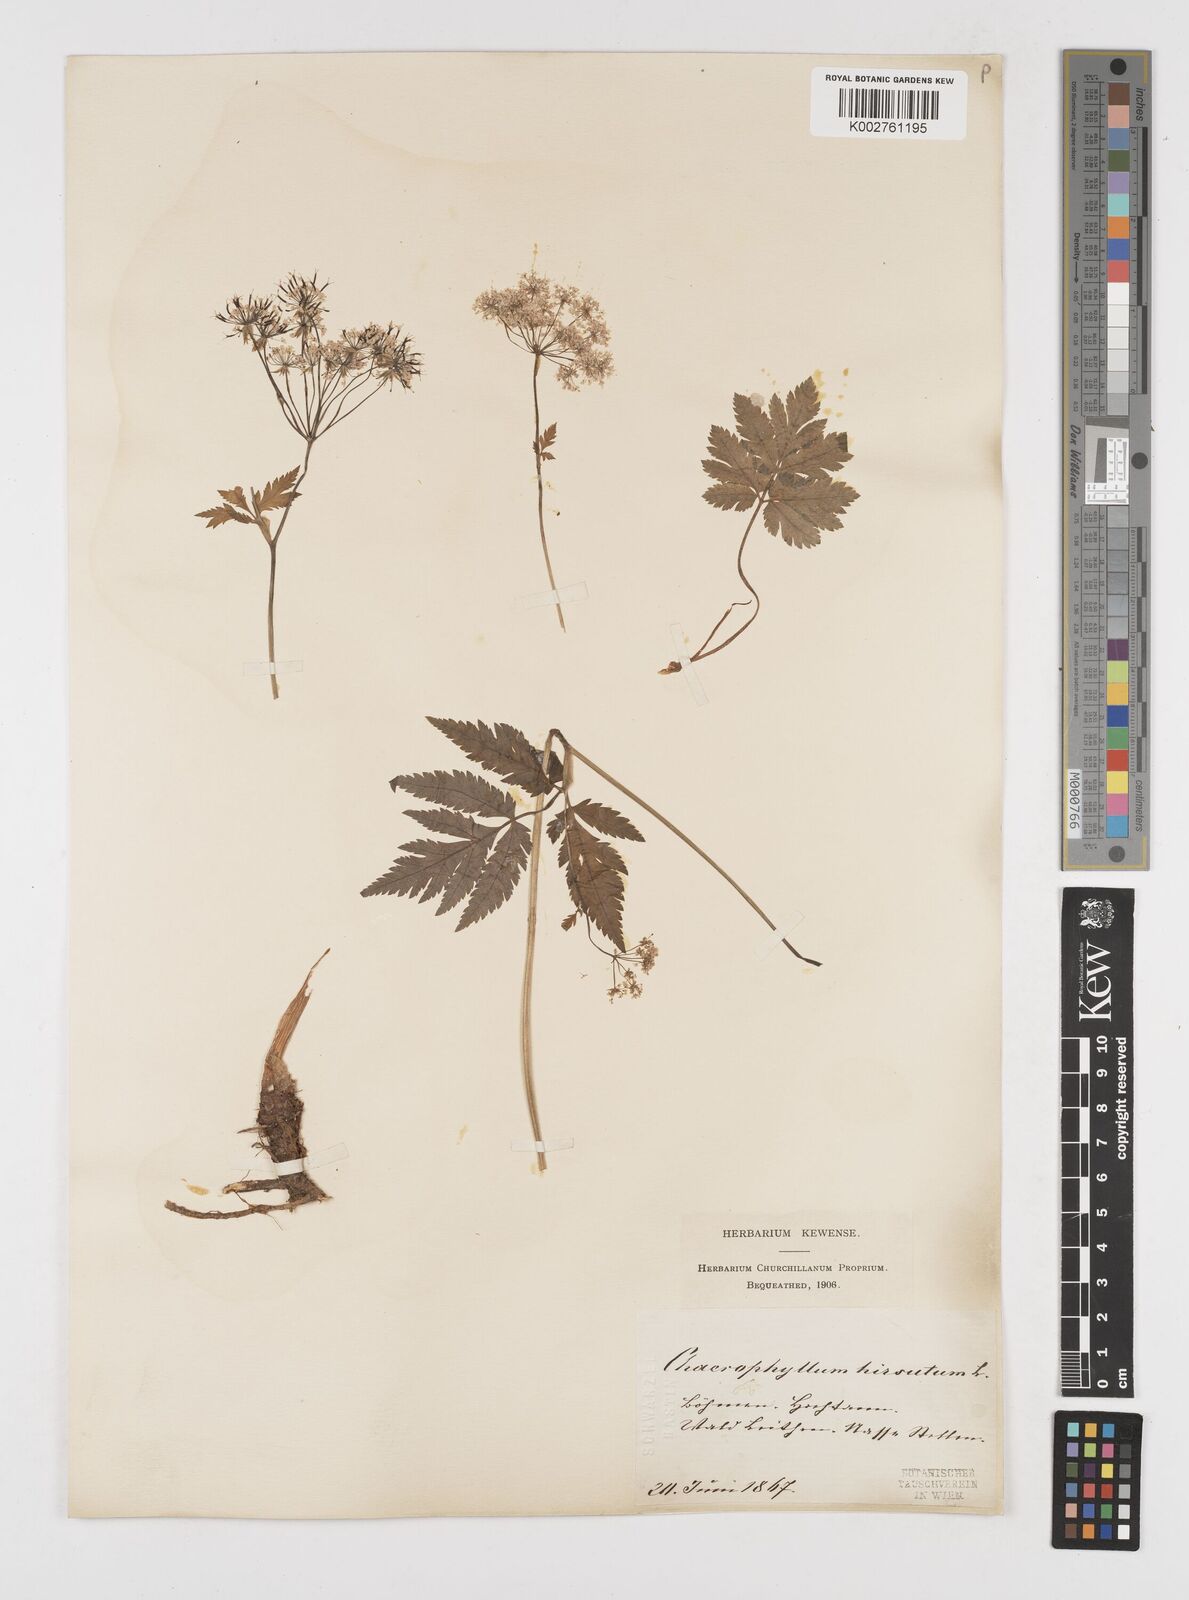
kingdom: Plantae
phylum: Tracheophyta
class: Magnoliopsida
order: Apiales
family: Apiaceae
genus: Chaerophyllum
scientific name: Chaerophyllum hirsutum
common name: Hairy chervil
